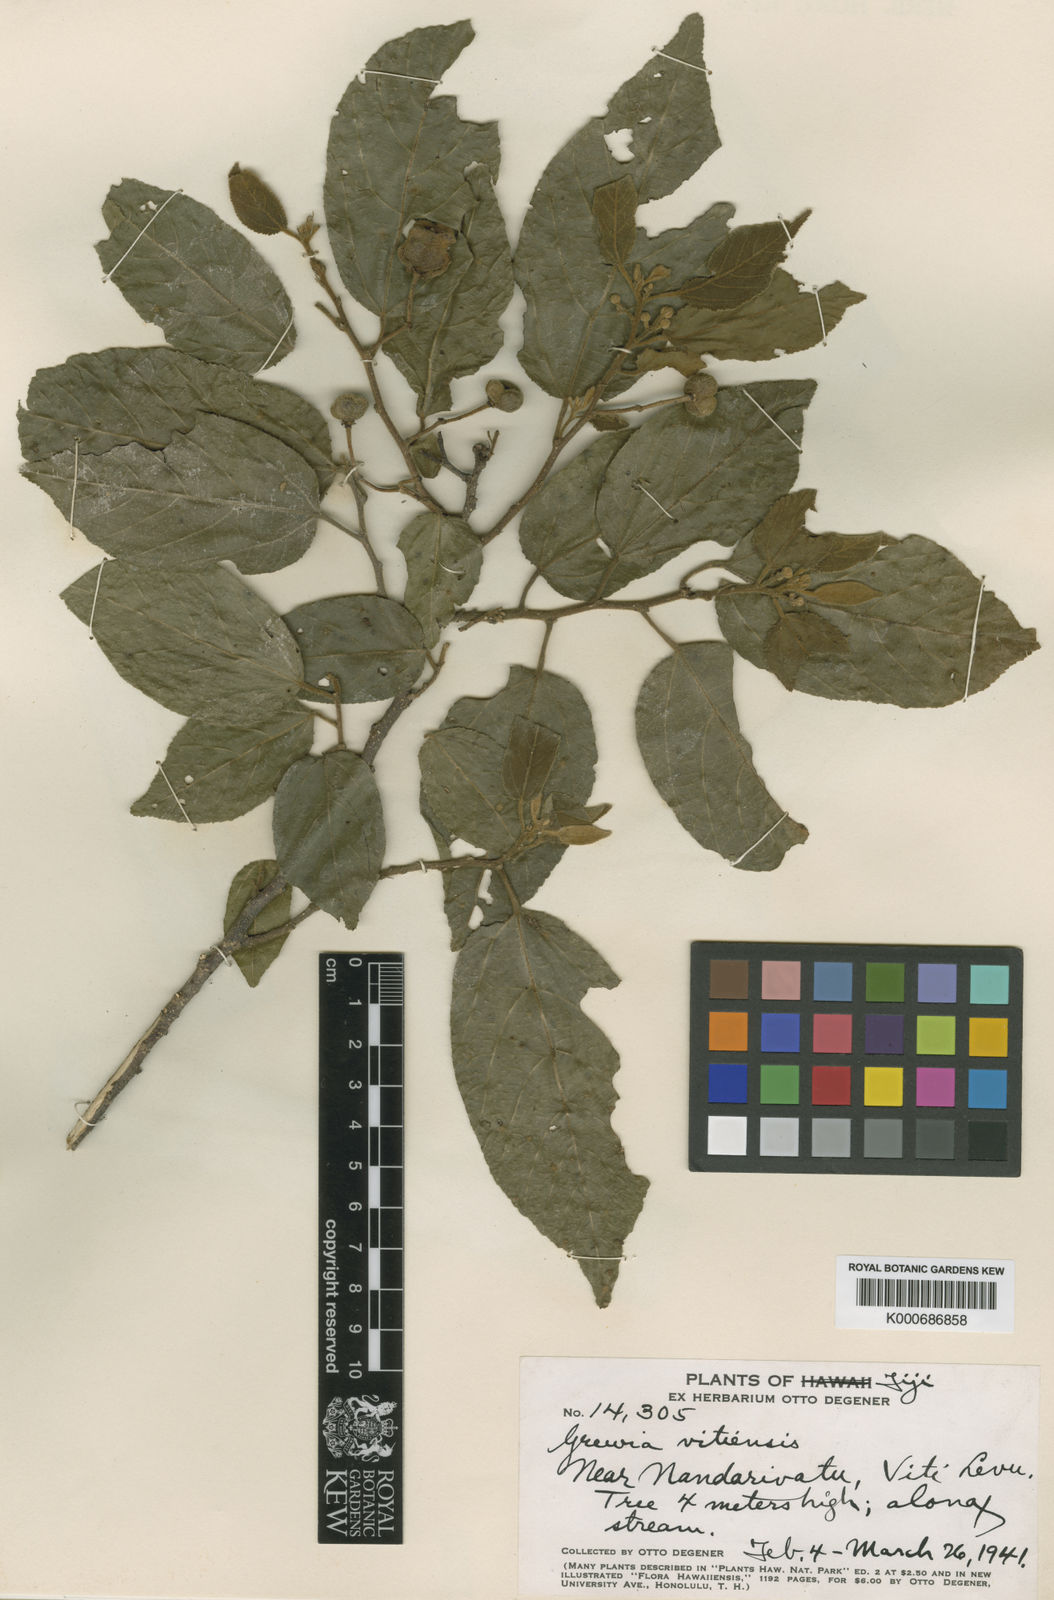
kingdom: Plantae
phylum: Tracheophyta
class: Magnoliopsida
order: Malvales
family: Malvaceae
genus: Grewia
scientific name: Grewia vitiensis
